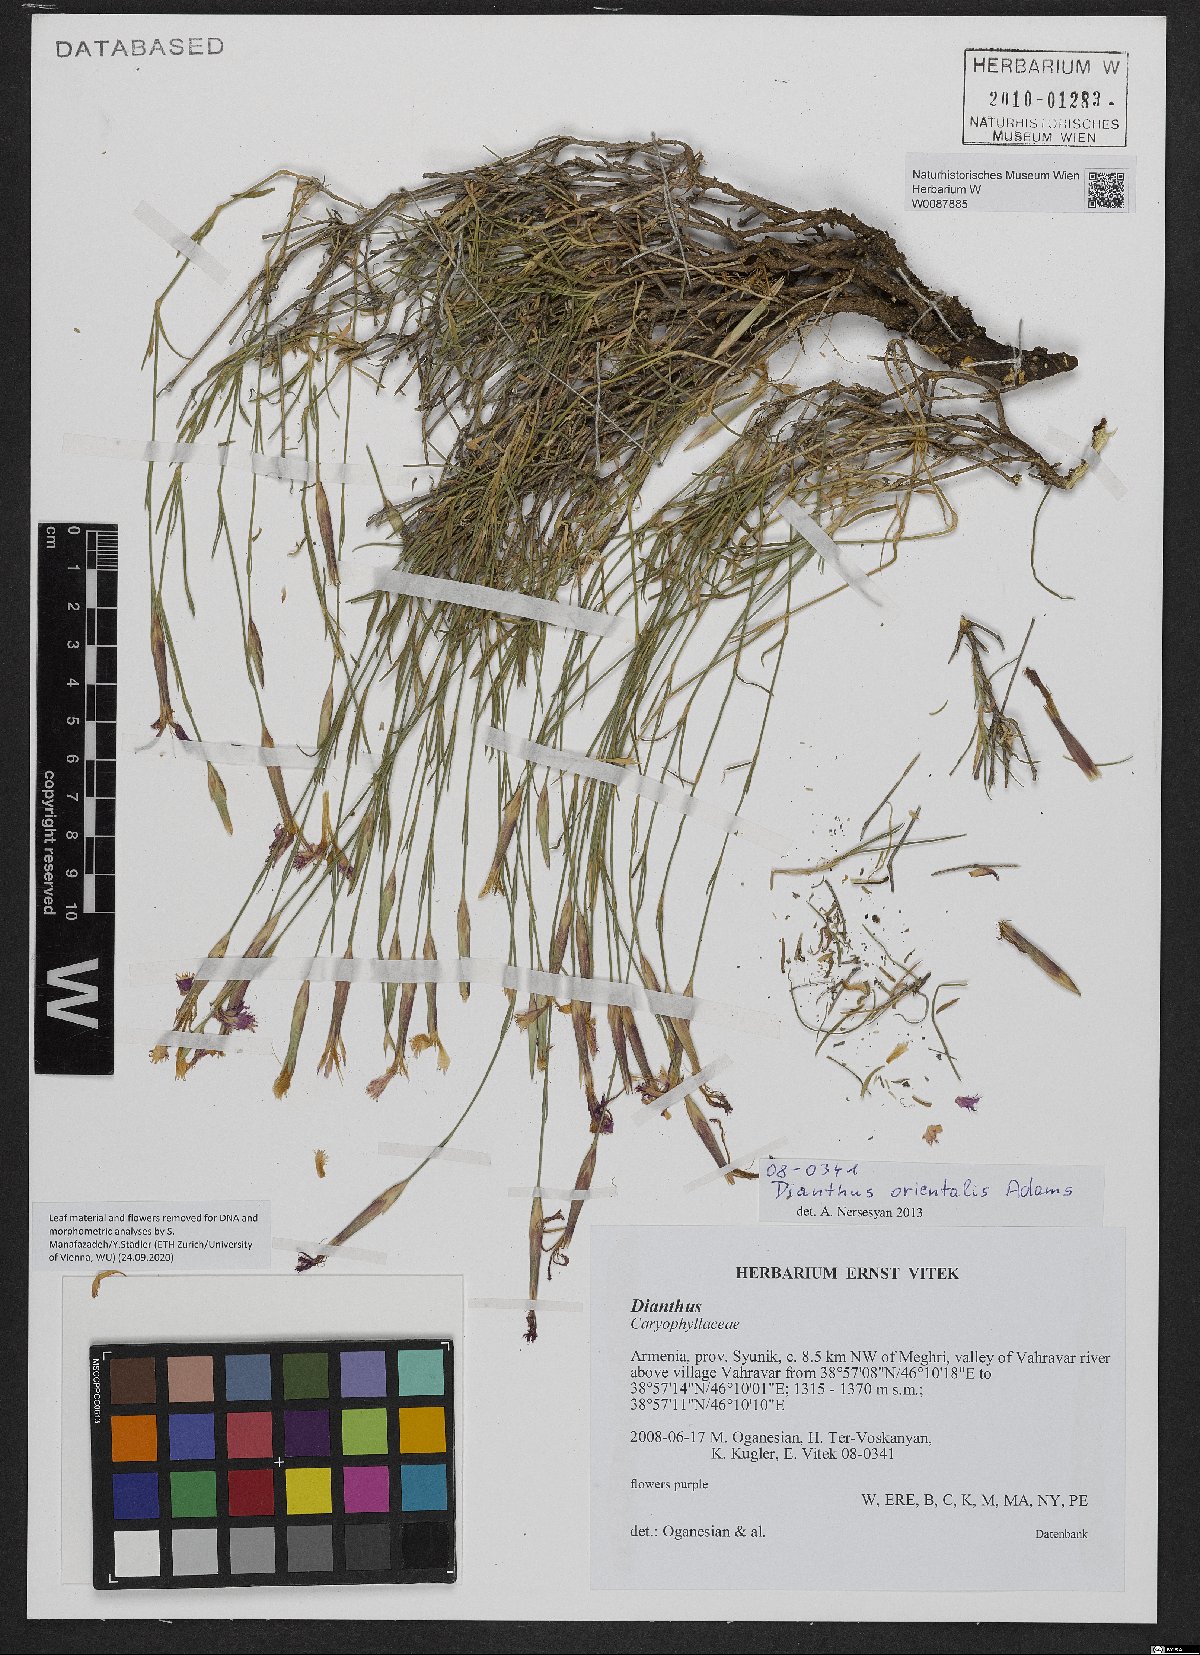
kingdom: Plantae
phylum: Tracheophyta
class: Magnoliopsida
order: Caryophyllales
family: Caryophyllaceae
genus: Dianthus
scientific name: Dianthus orientalis
